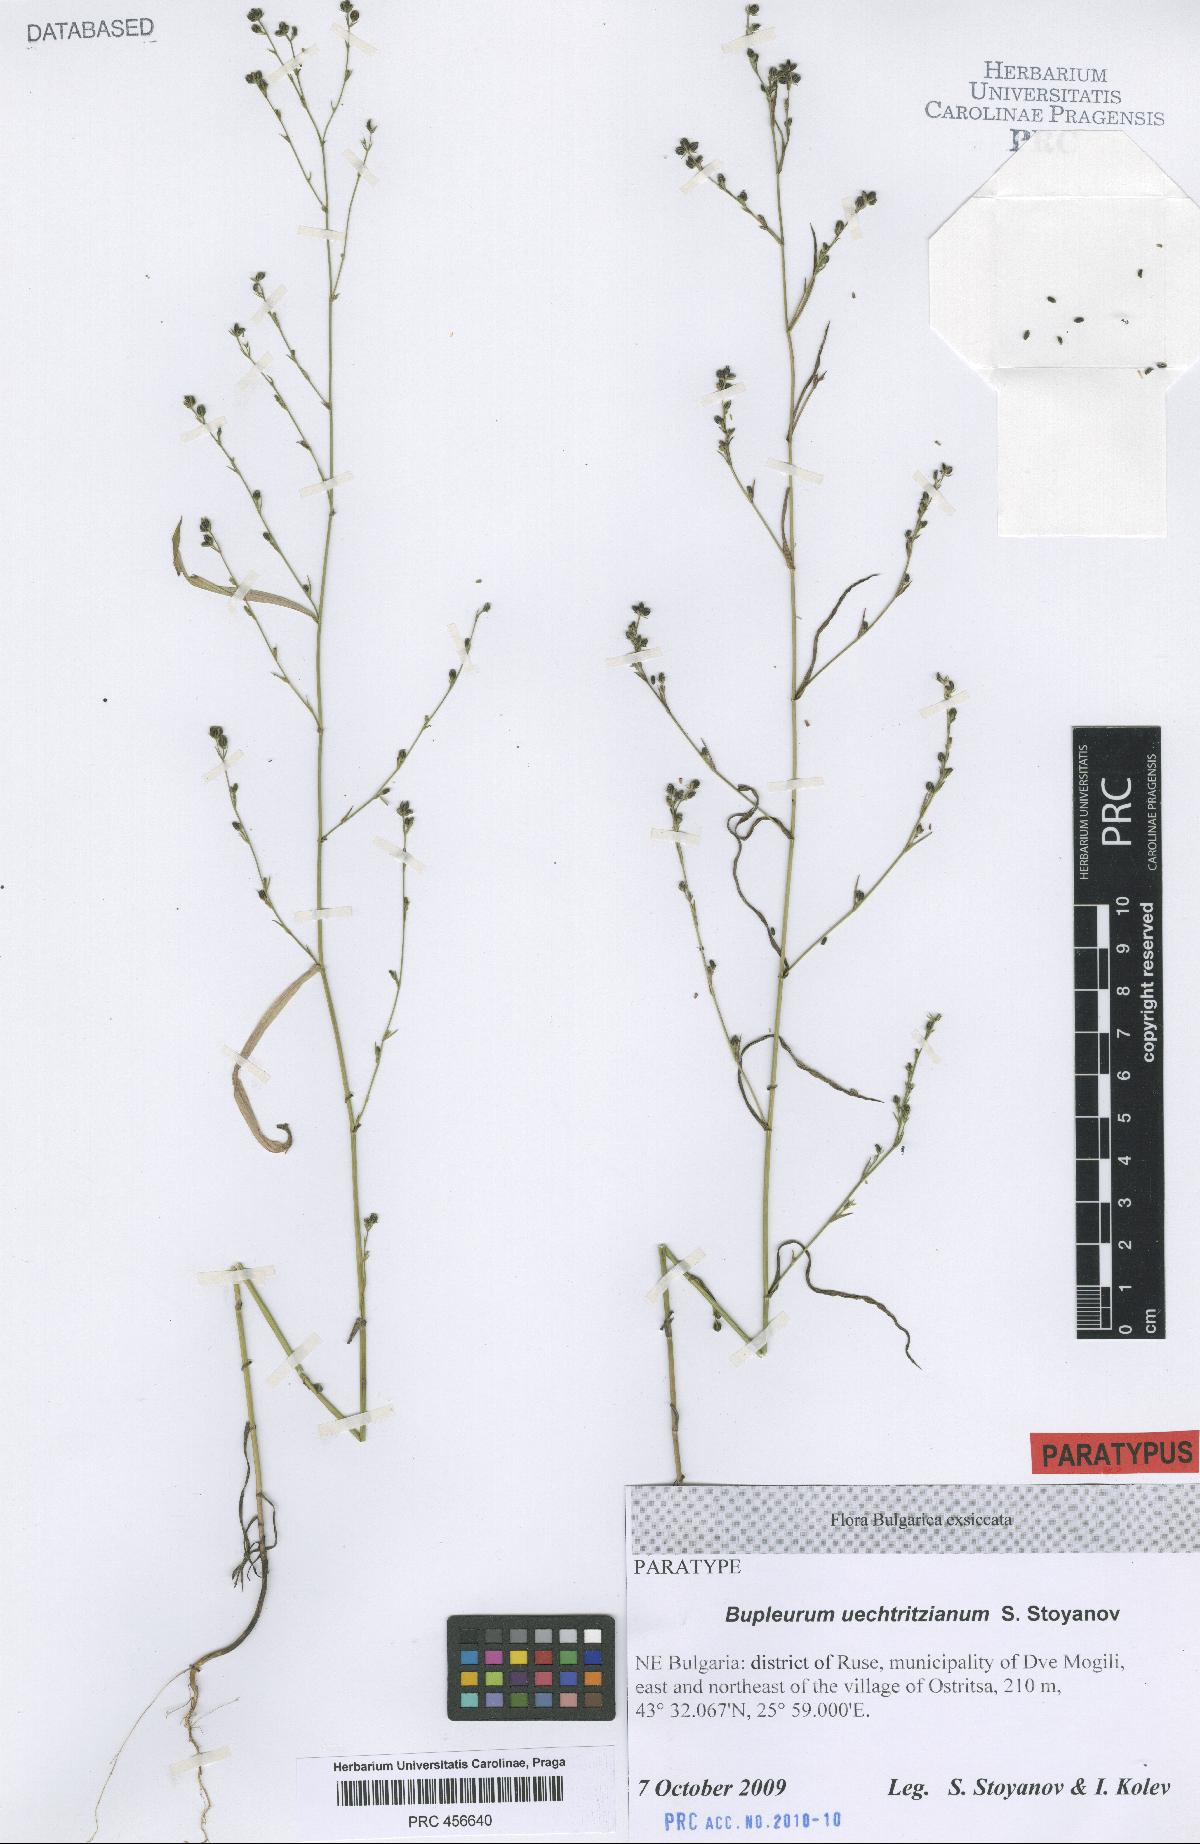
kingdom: Plantae
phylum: Tracheophyta
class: Magnoliopsida
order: Apiales
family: Apiaceae
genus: Bupleurum
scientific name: Bupleurum boissieri
